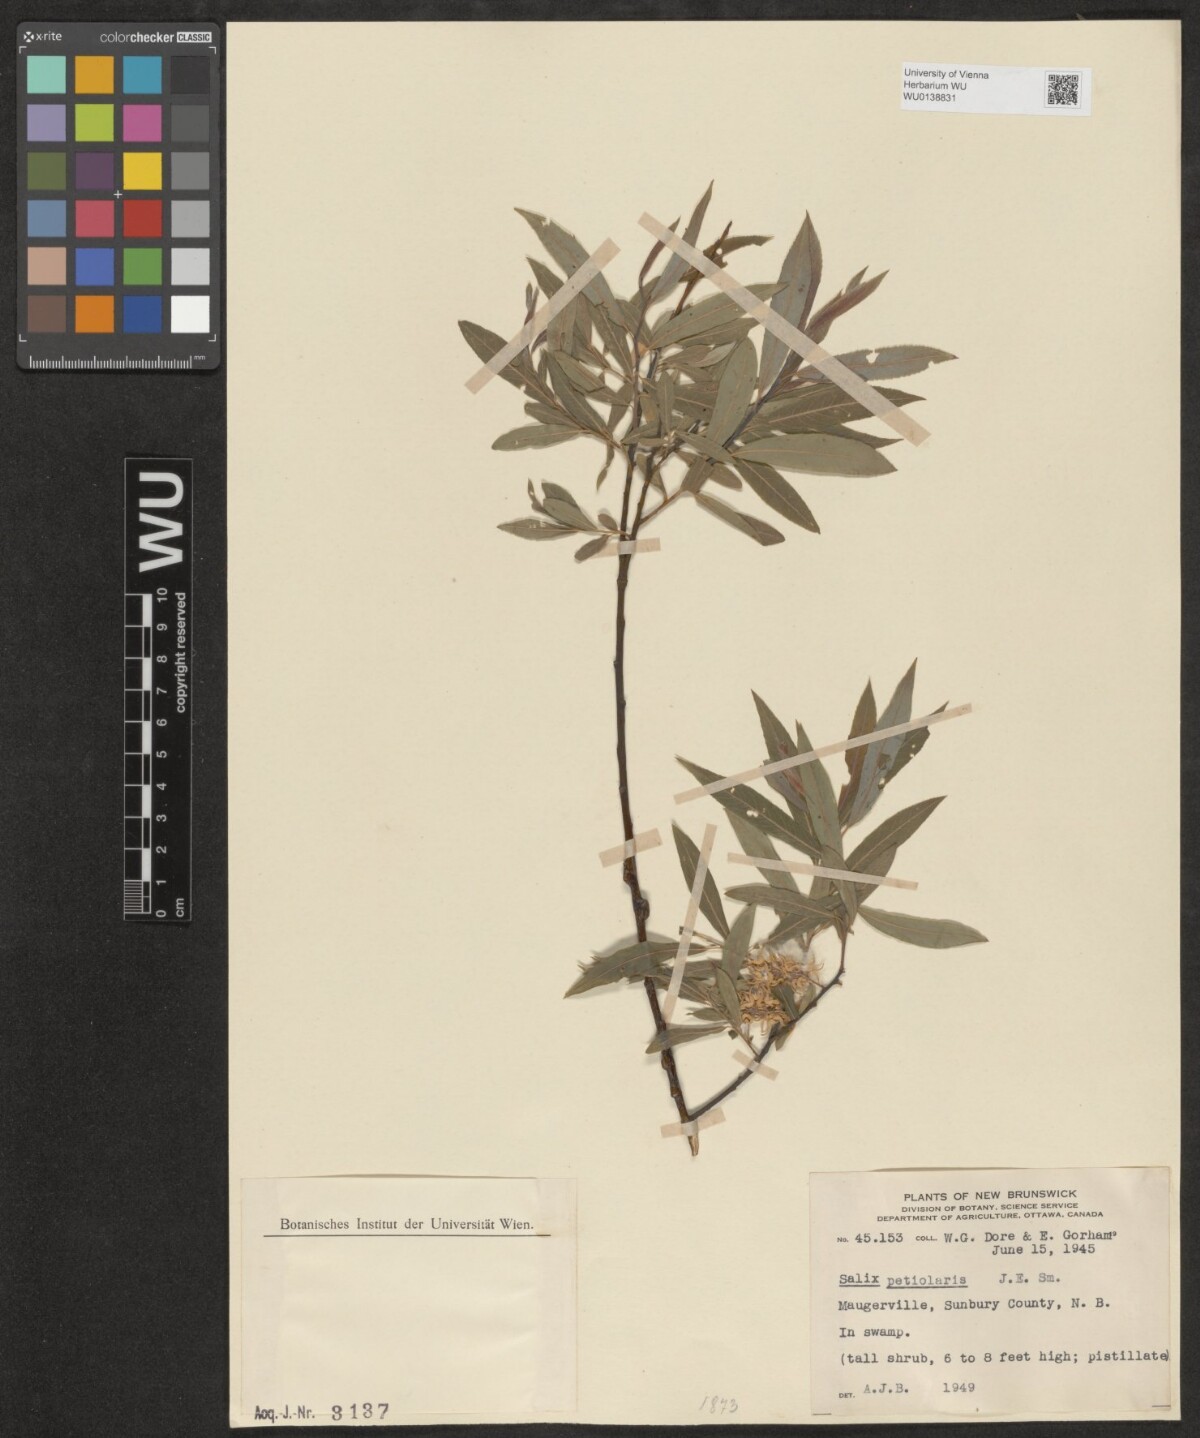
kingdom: Plantae
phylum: Tracheophyta
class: Magnoliopsida
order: Malpighiales
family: Salicaceae
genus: Salix
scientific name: Salix petiolaris
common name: Slender willow
